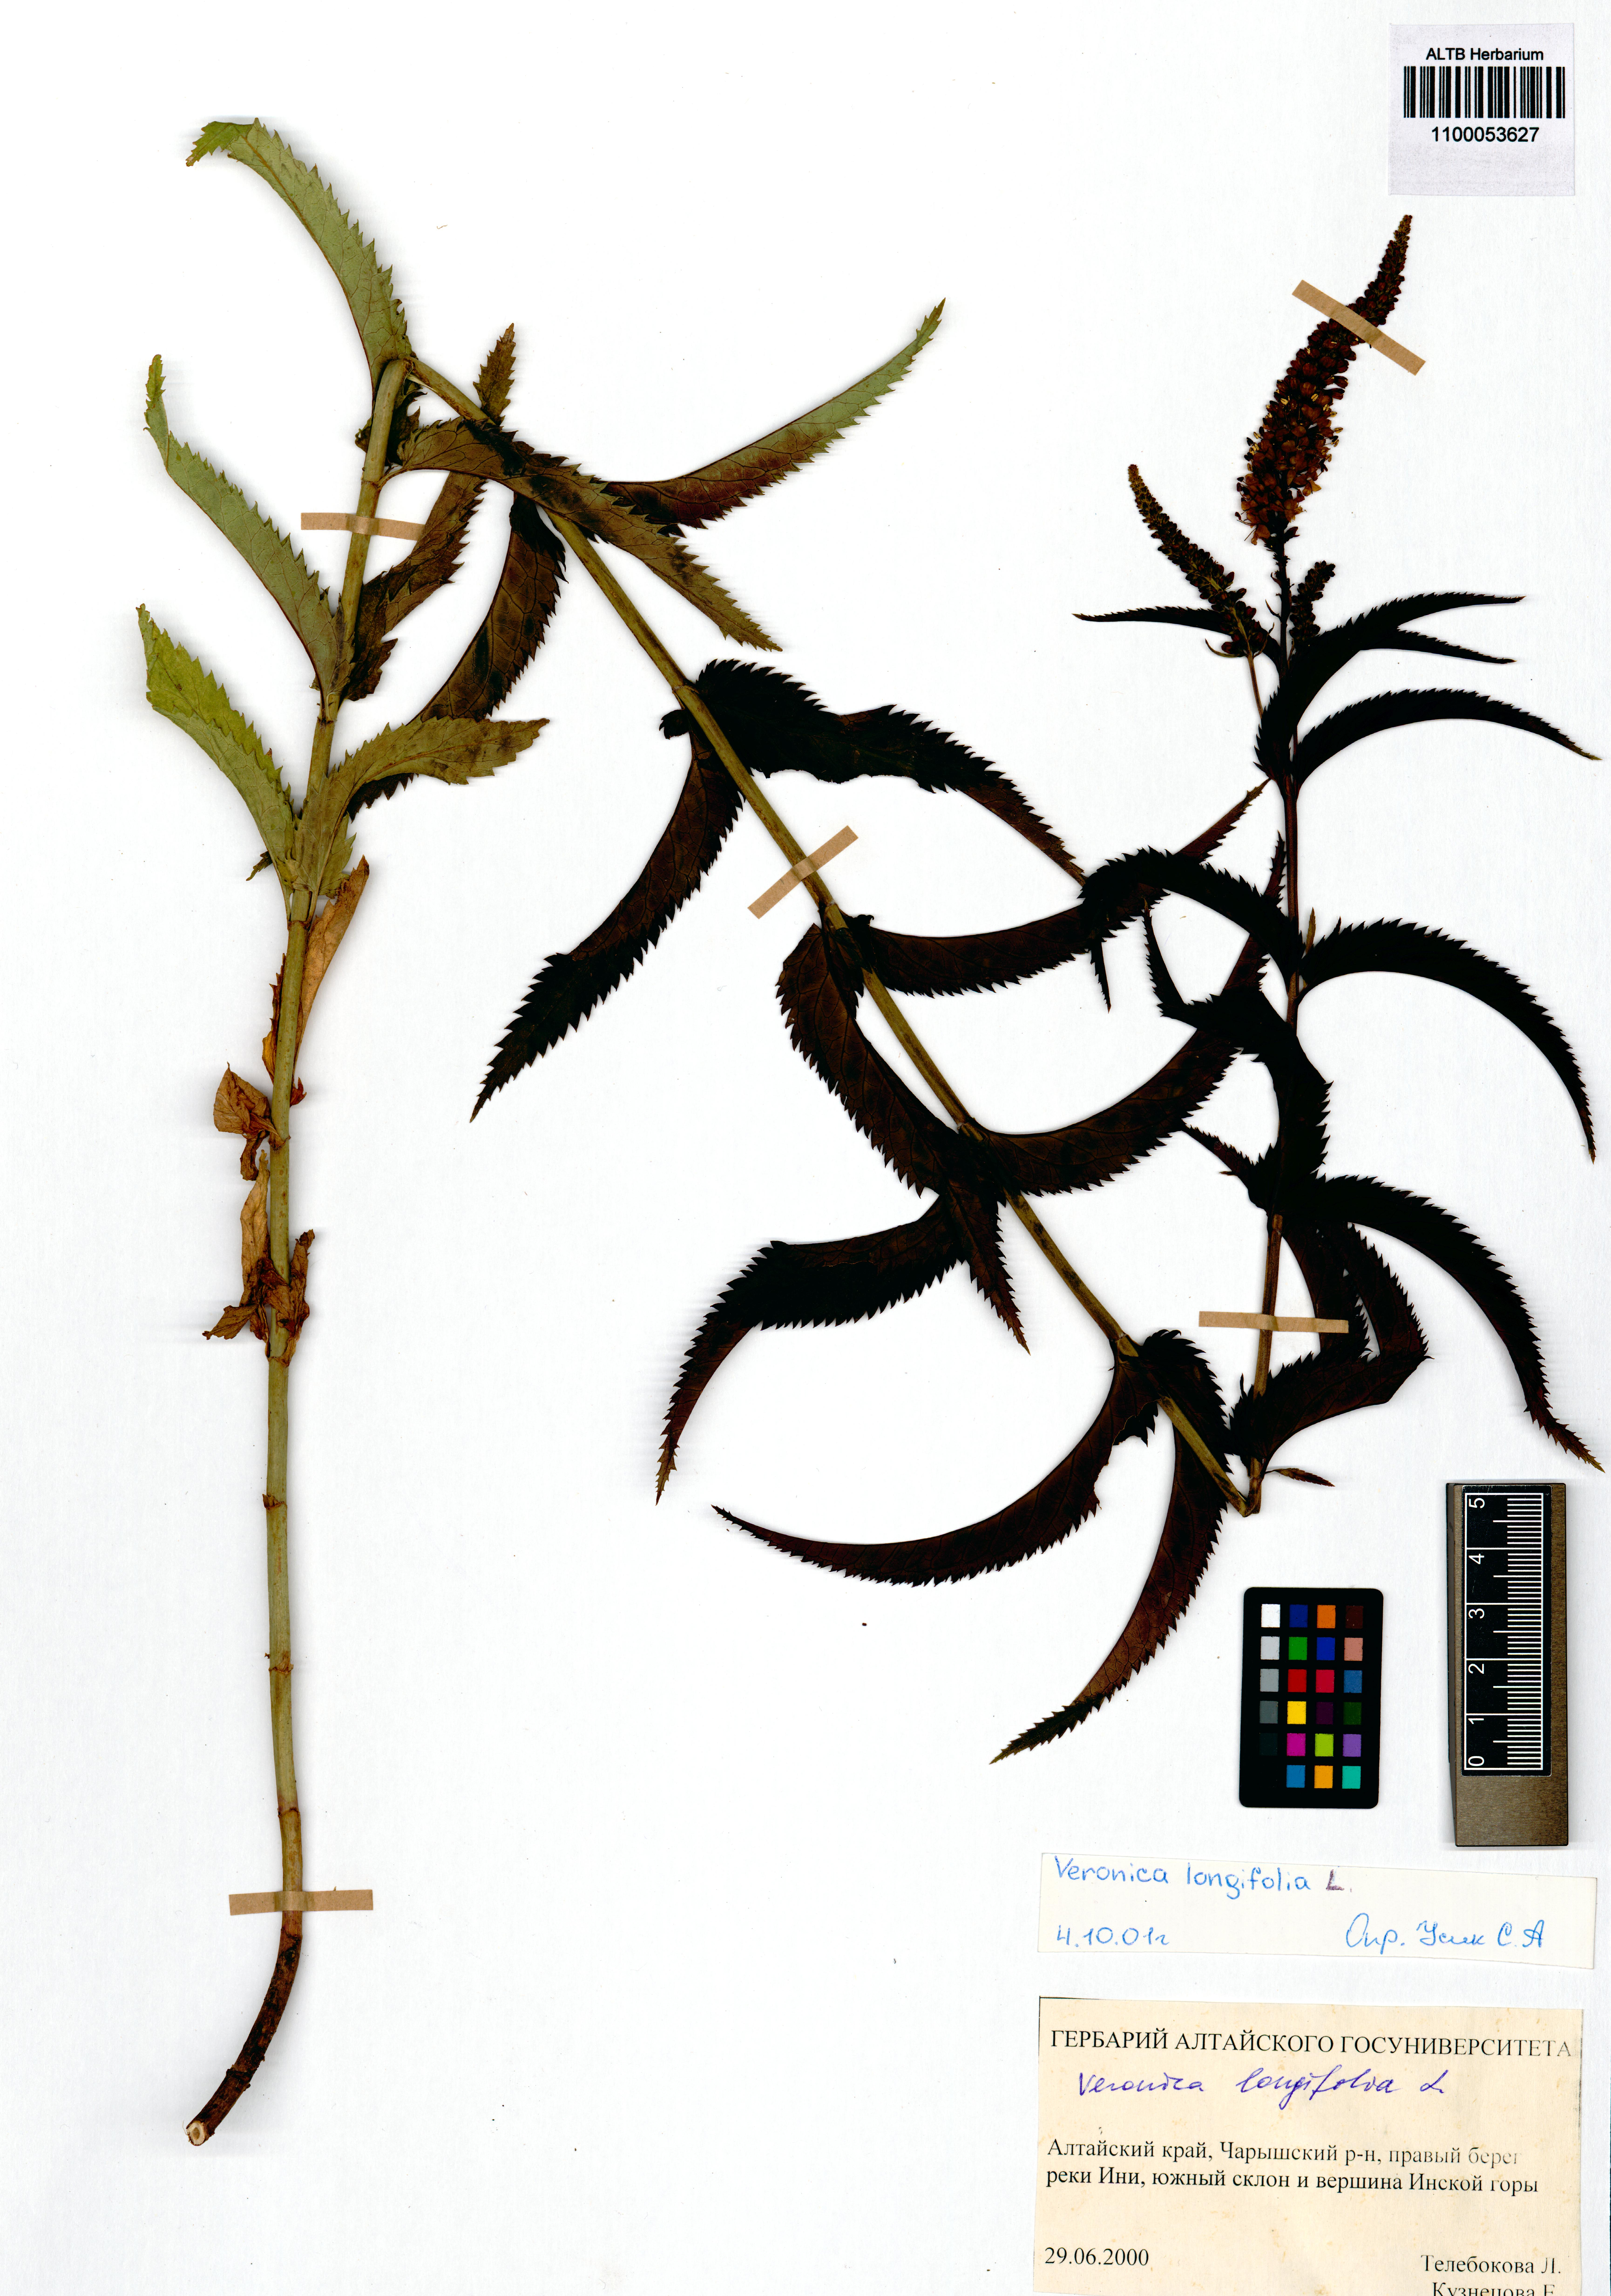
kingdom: Plantae
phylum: Tracheophyta
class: Magnoliopsida
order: Lamiales
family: Plantaginaceae
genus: Veronica
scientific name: Veronica longifolia
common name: Garden speedwell
